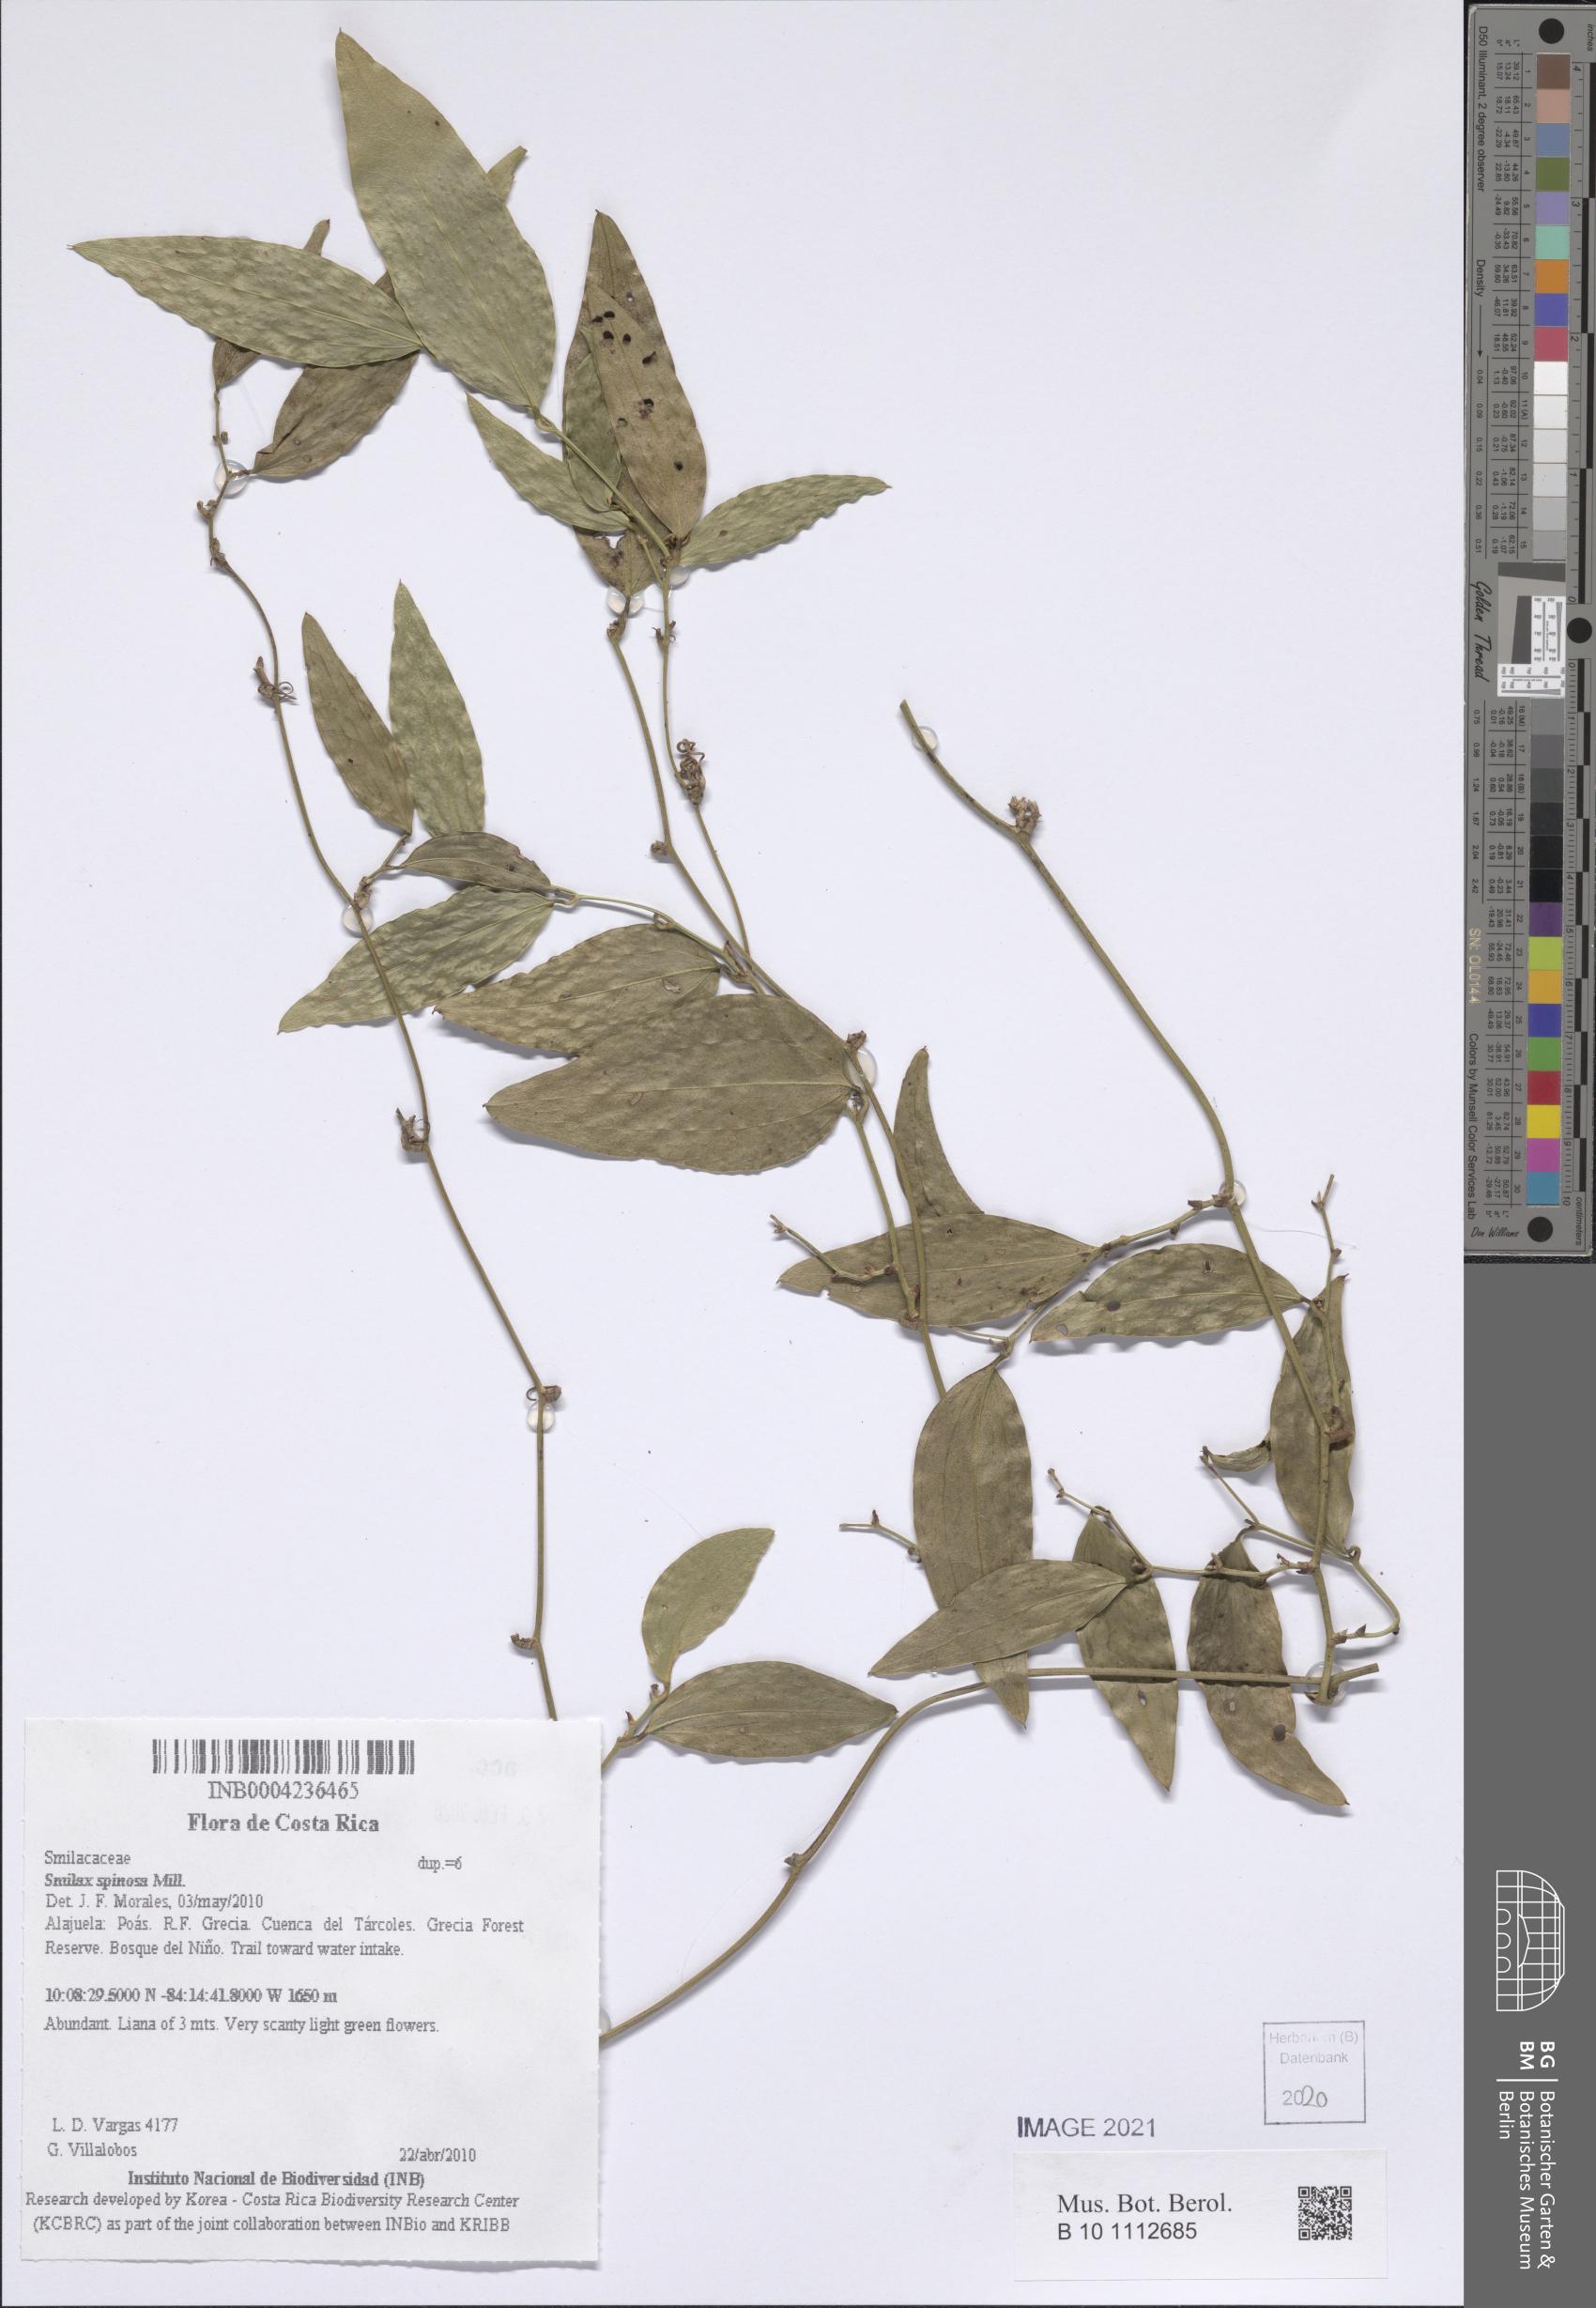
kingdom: Plantae
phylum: Tracheophyta
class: Liliopsida
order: Liliales
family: Smilacaceae
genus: Smilax
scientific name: Smilax spinosa
